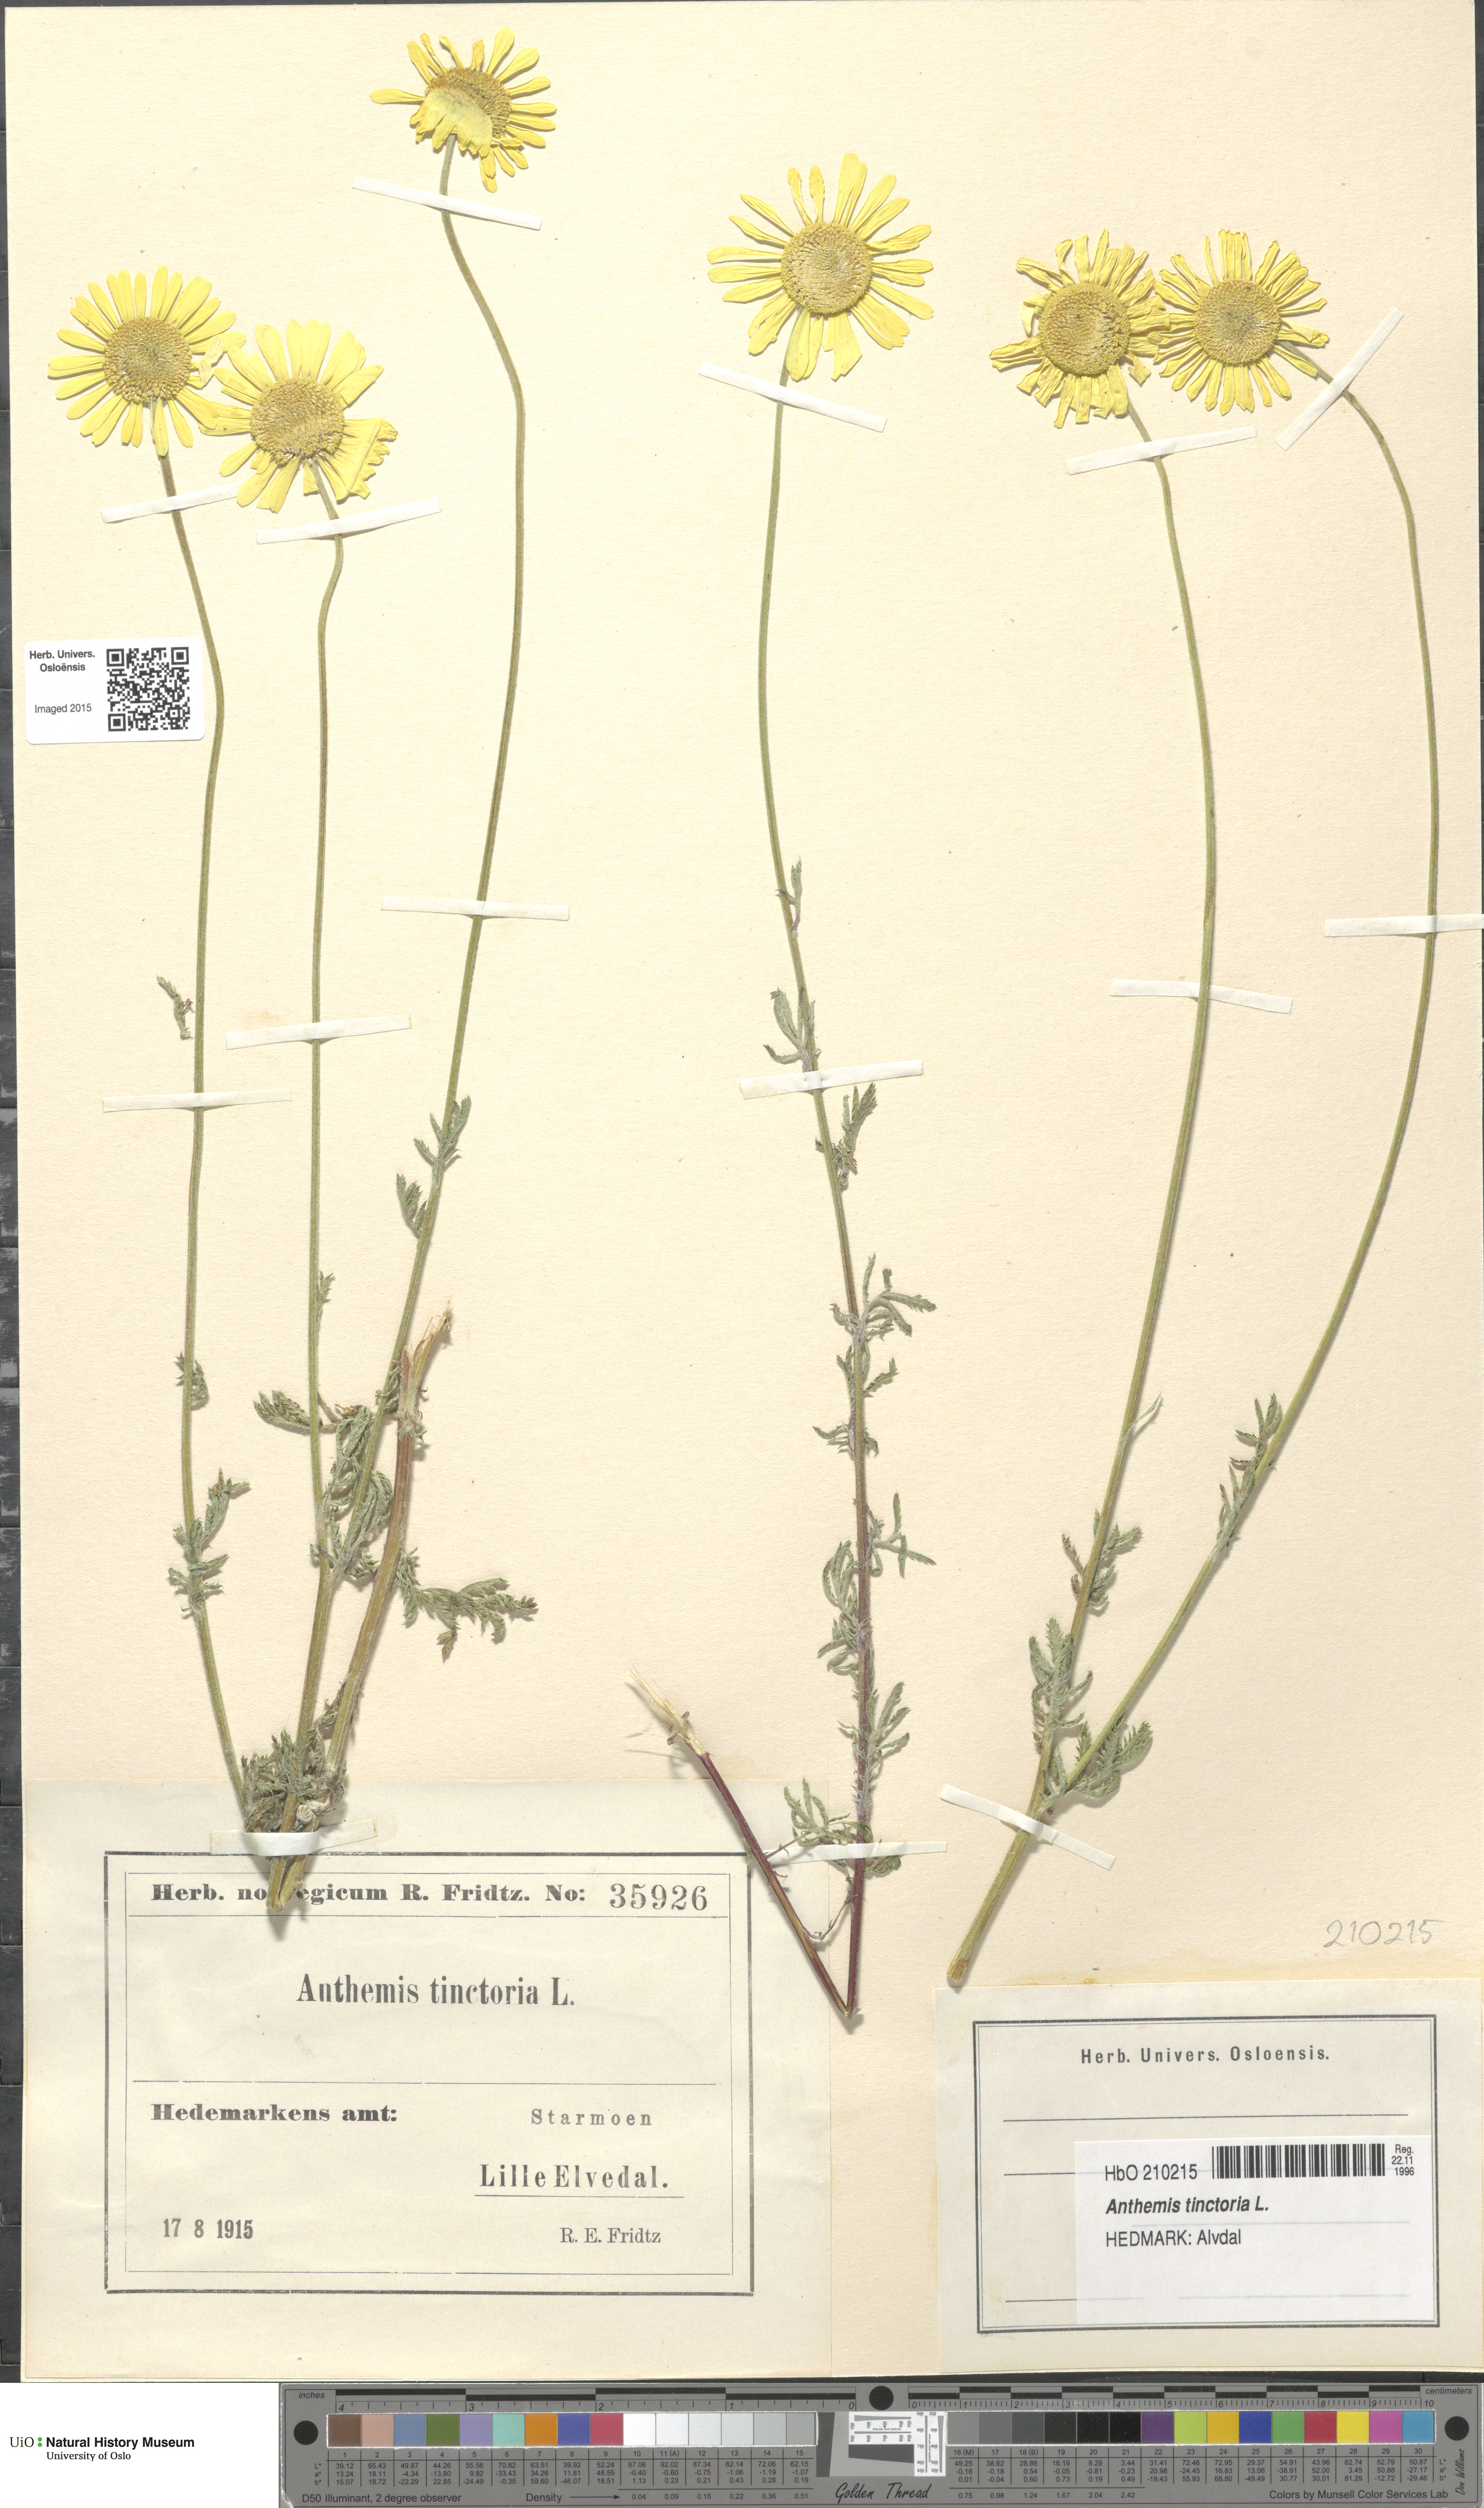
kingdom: Plantae
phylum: Tracheophyta
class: Magnoliopsida
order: Asterales
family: Asteraceae
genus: Cota
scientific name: Cota tinctoria
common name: Golden chamomile
